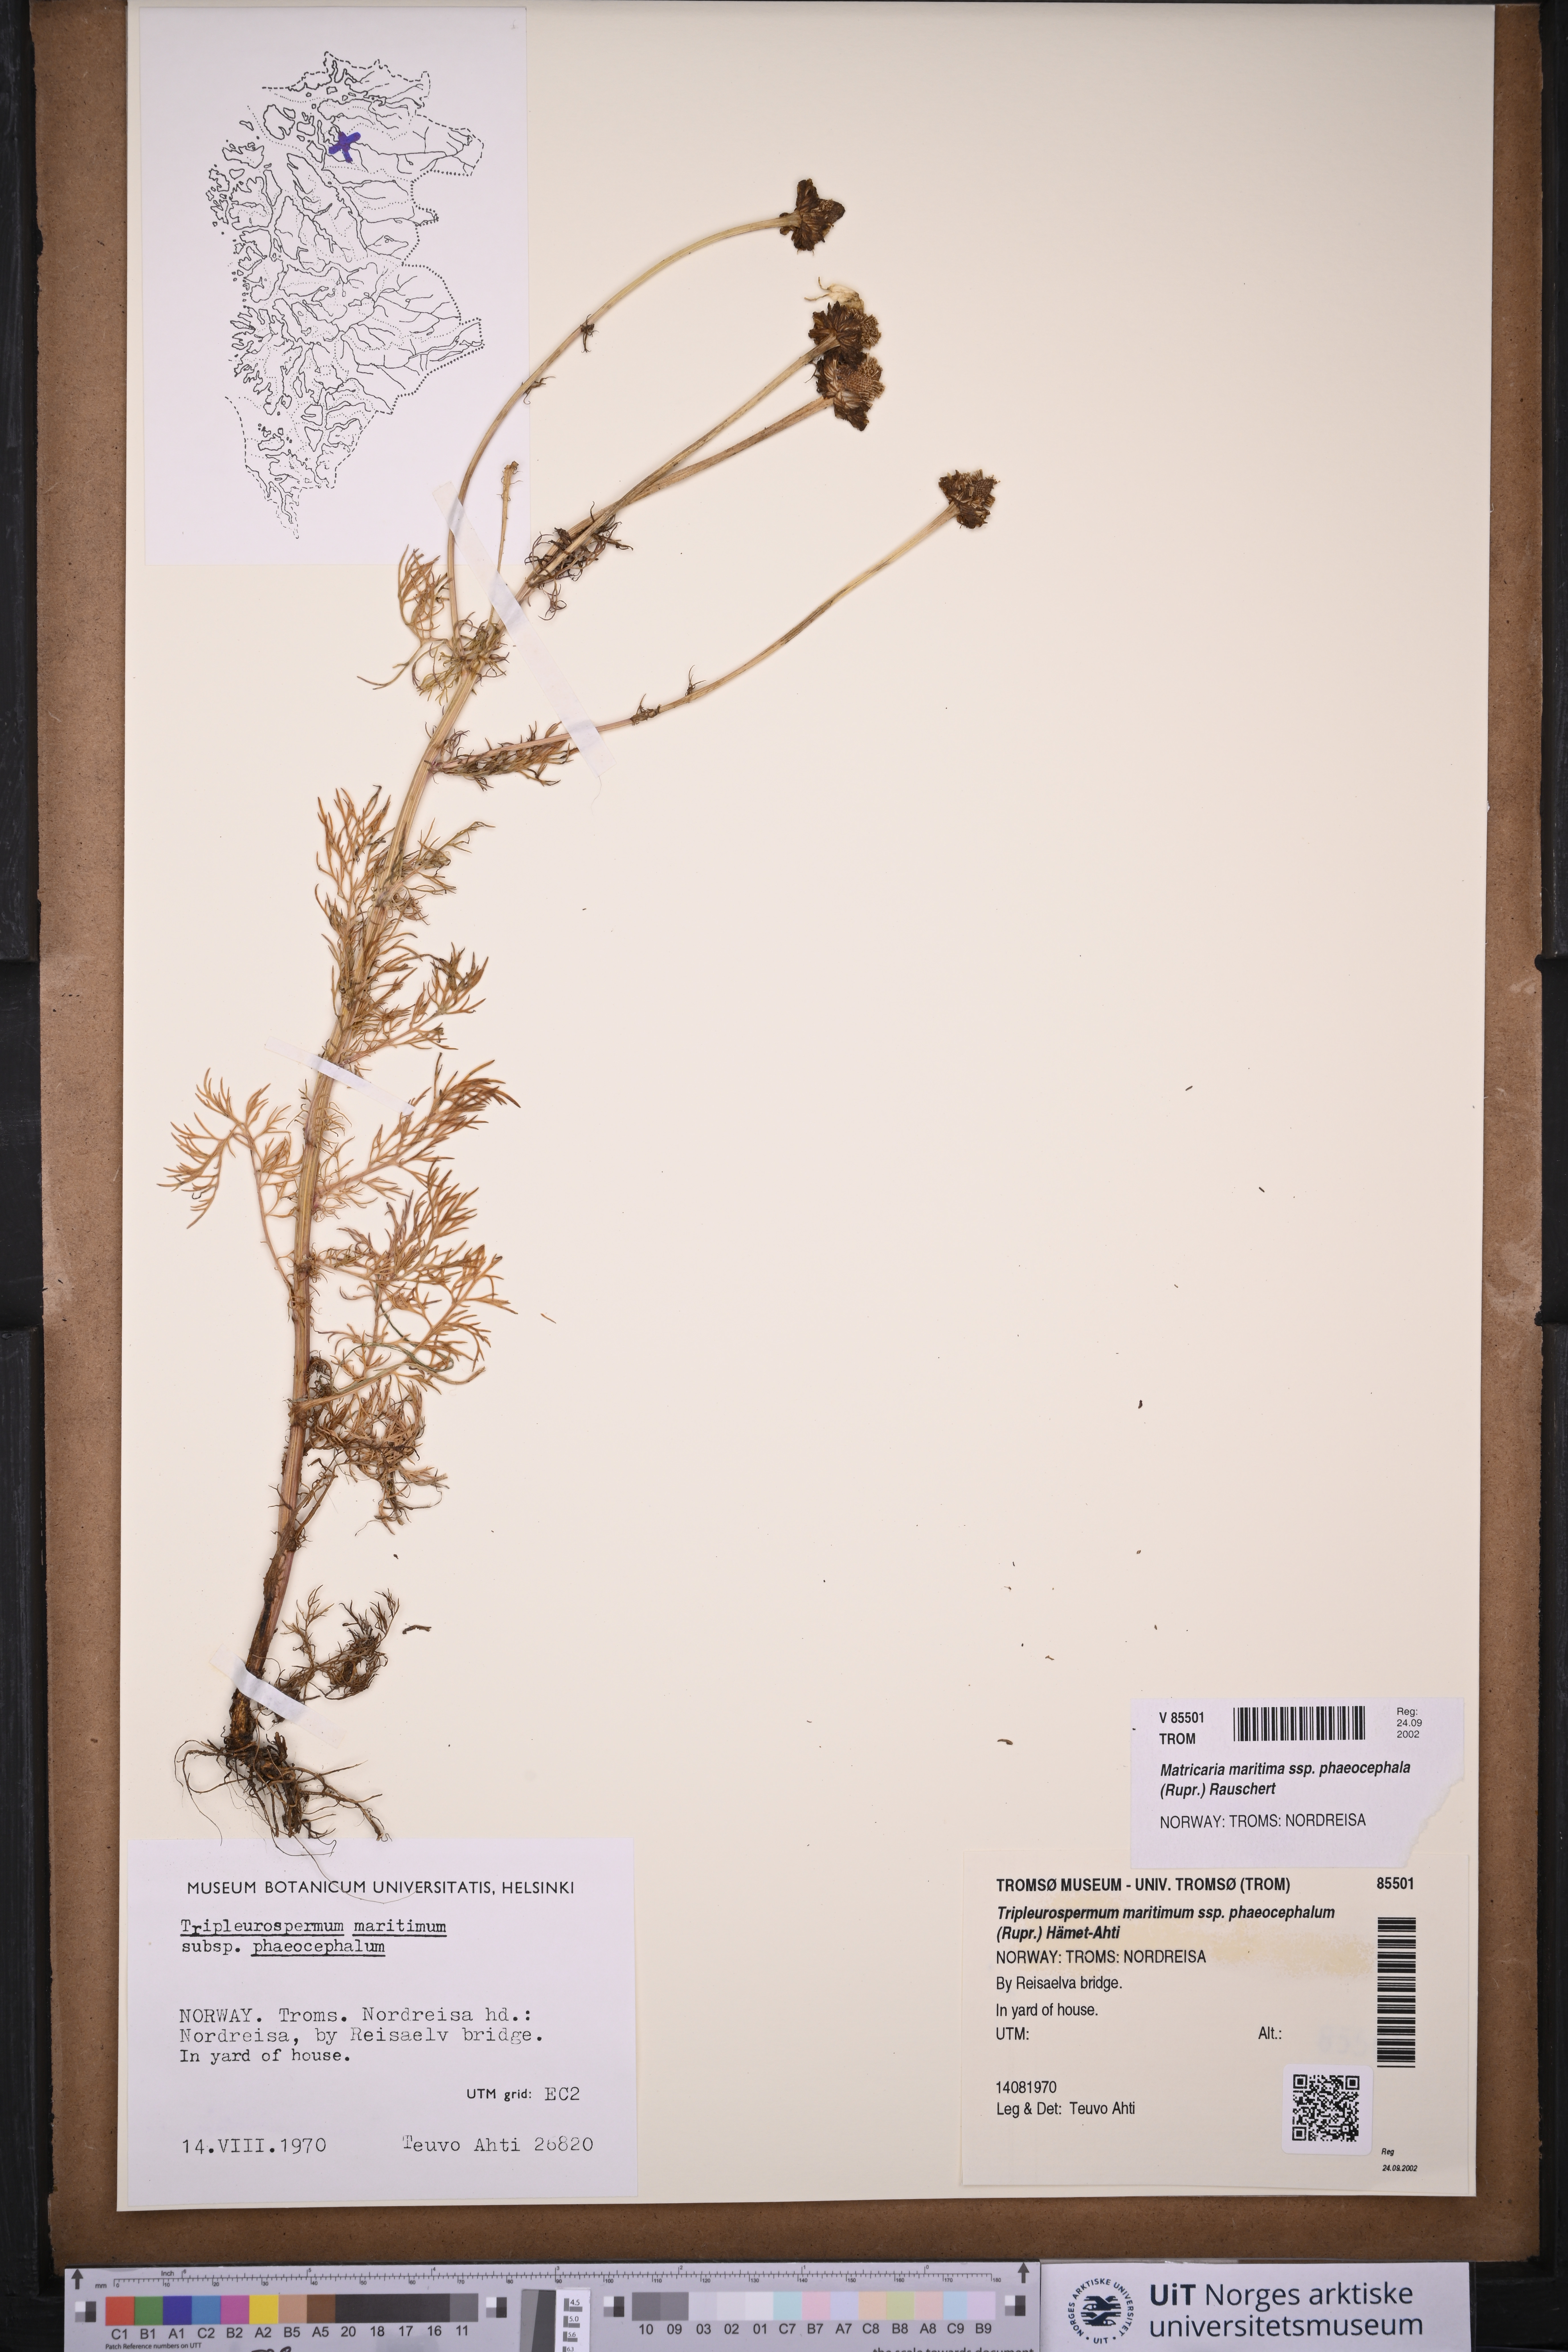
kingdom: Plantae
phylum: Tracheophyta
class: Magnoliopsida
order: Asterales
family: Asteraceae
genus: Tripleurospermum
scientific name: Tripleurospermum hookeri
